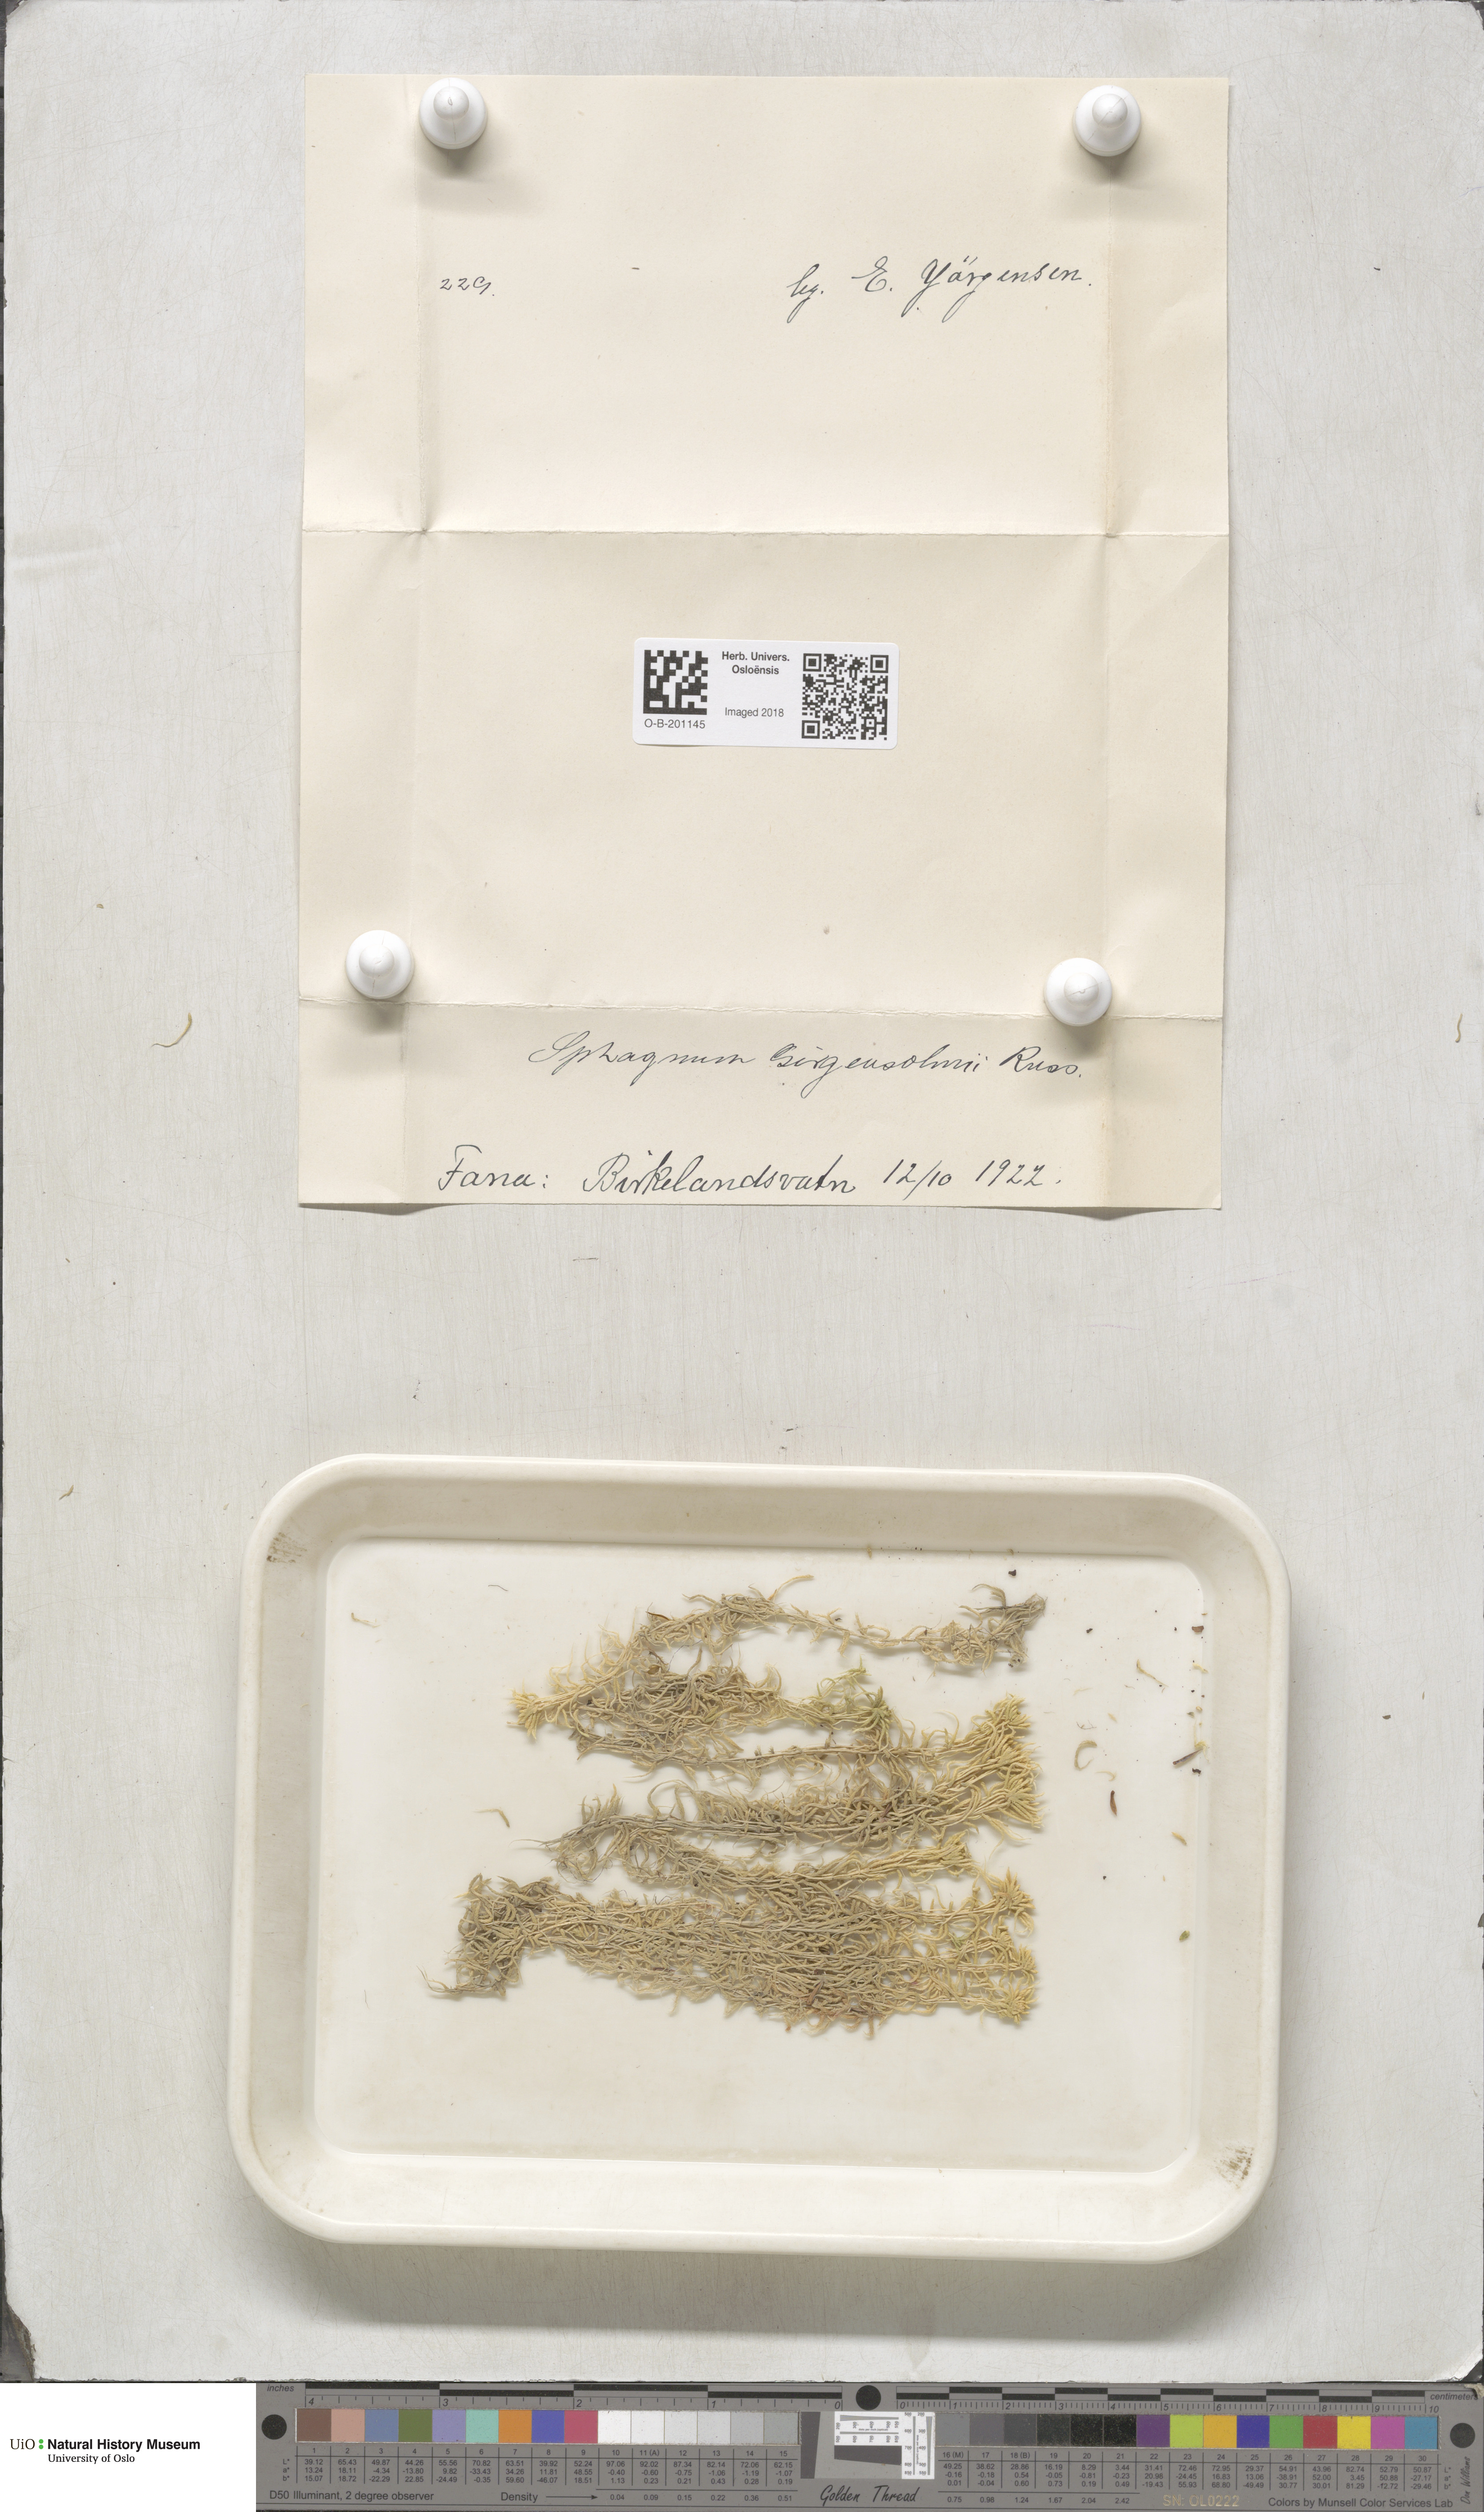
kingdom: Plantae
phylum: Bryophyta
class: Sphagnopsida
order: Sphagnales
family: Sphagnaceae
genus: Sphagnum
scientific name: Sphagnum girgensohnii
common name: Girgensohn's peat moss
